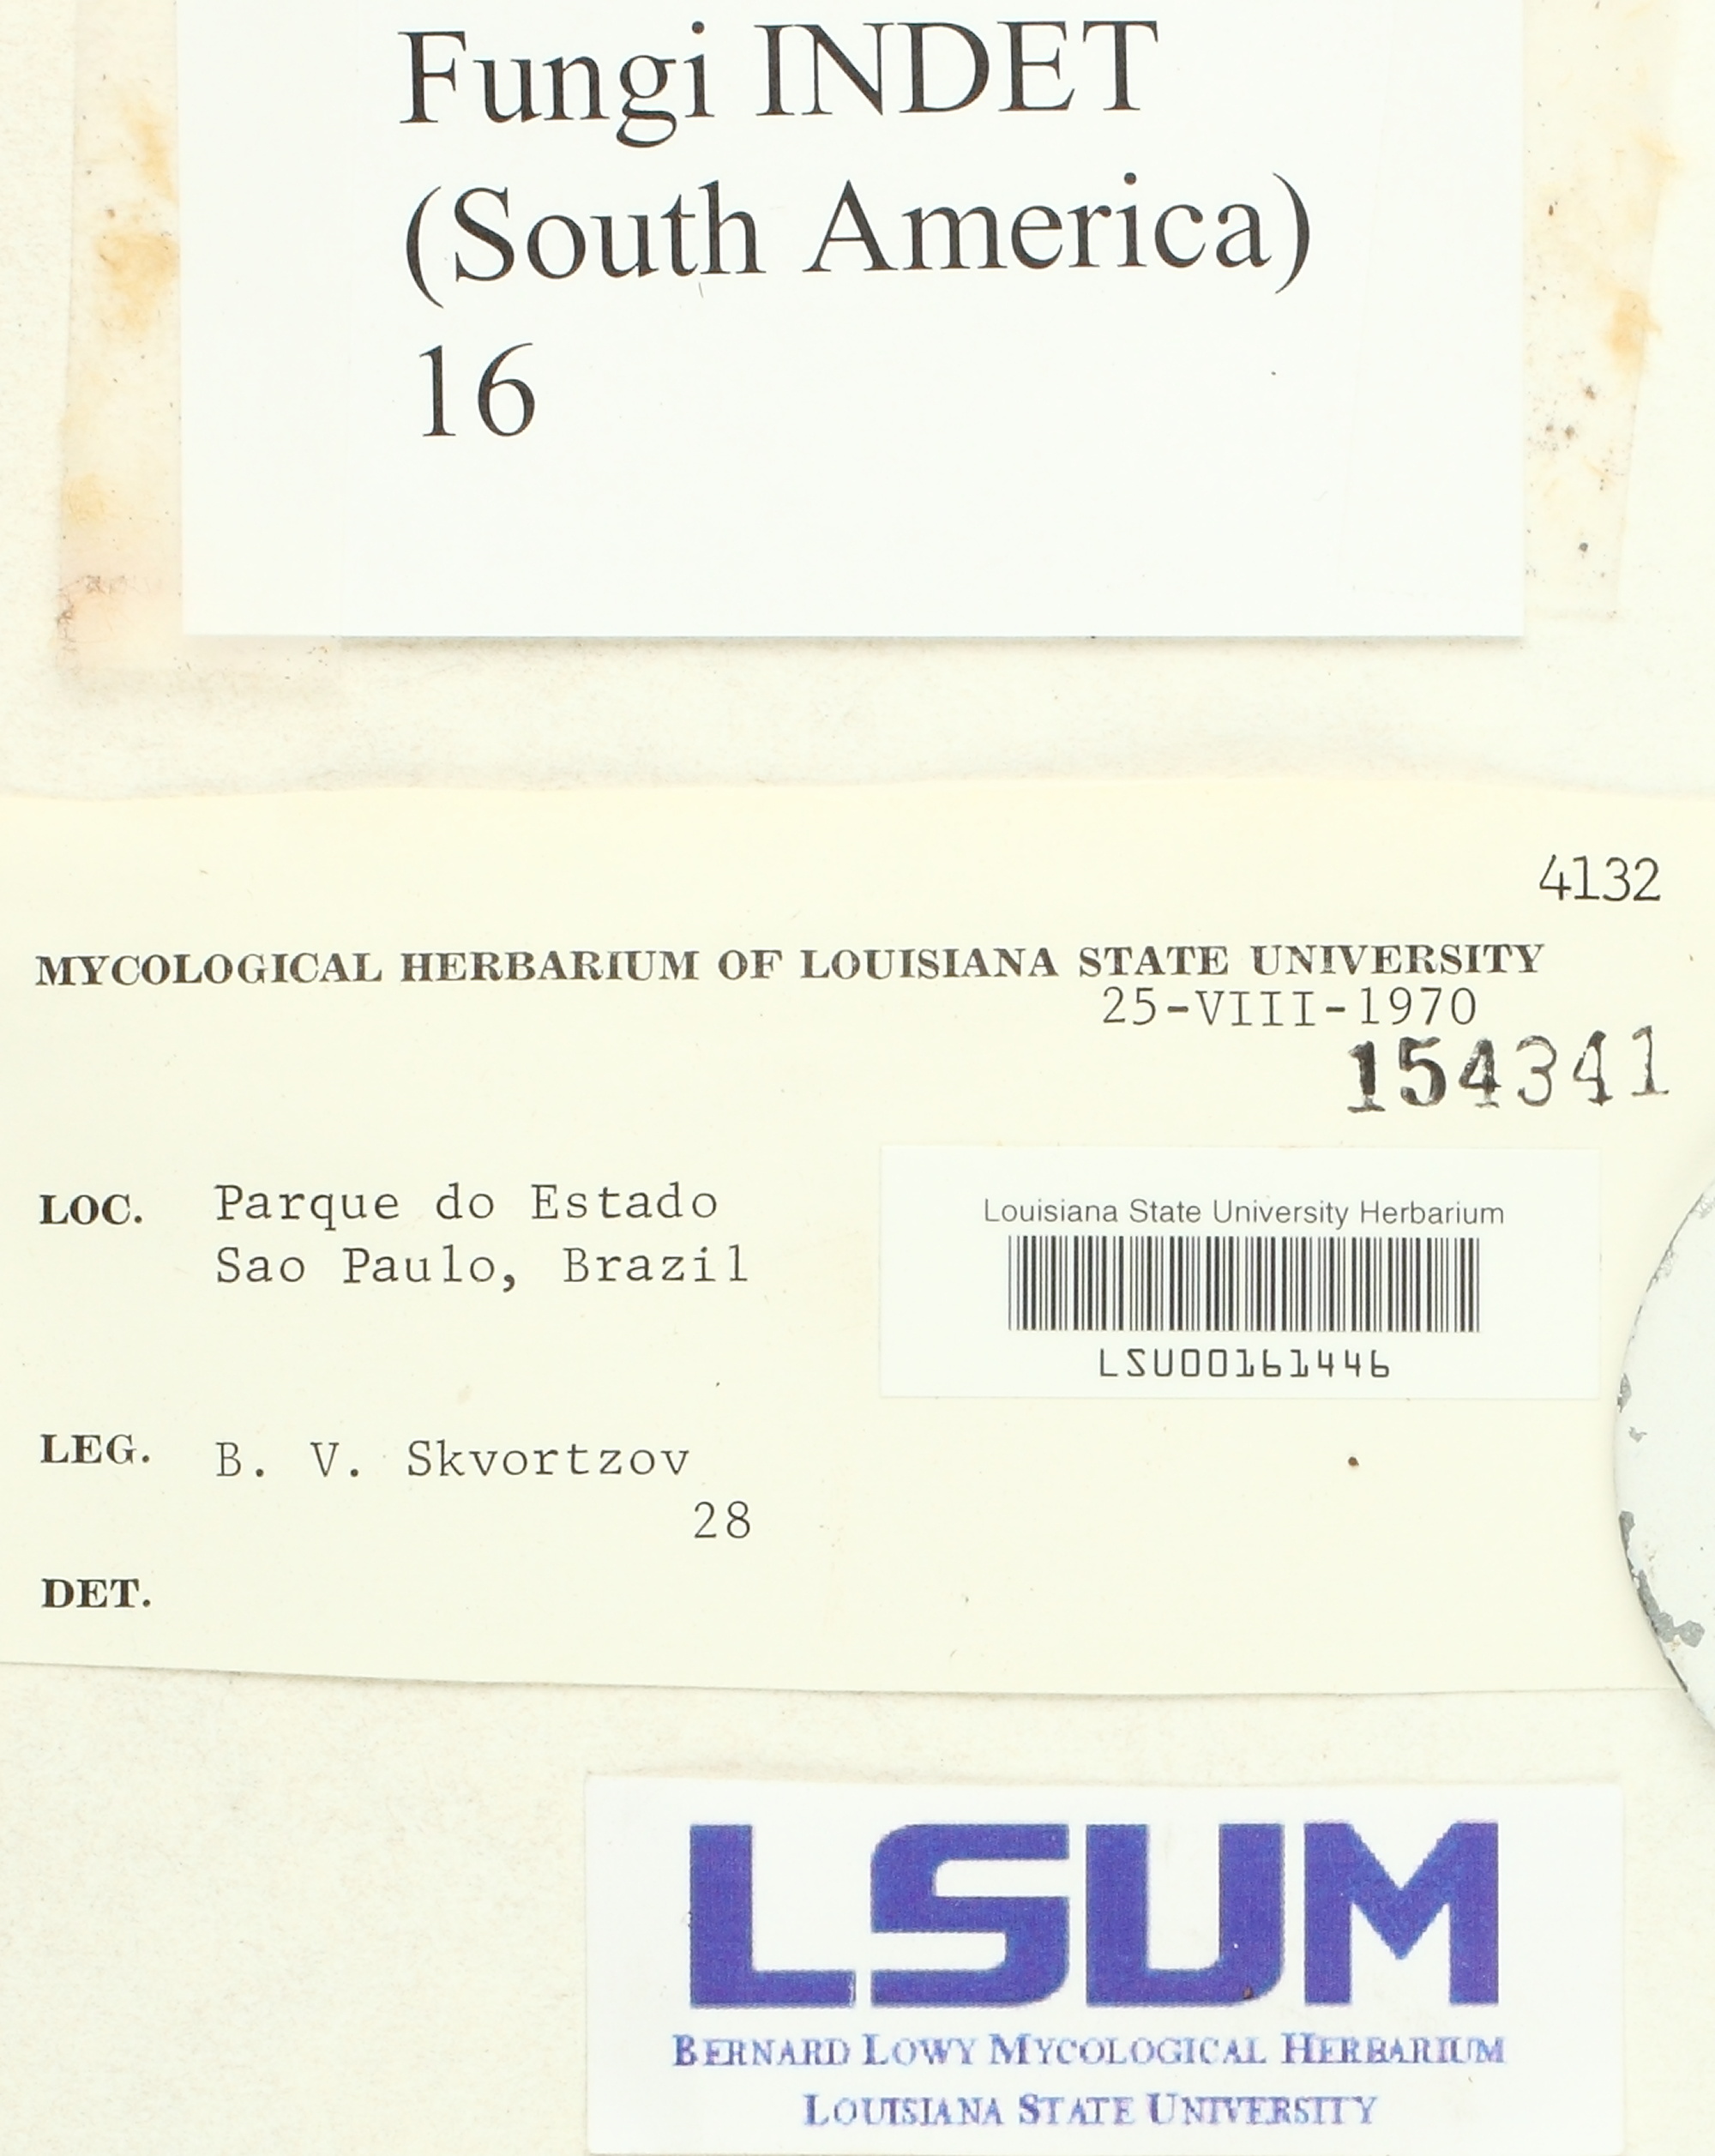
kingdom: Fungi
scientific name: Fungi
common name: Fungi
